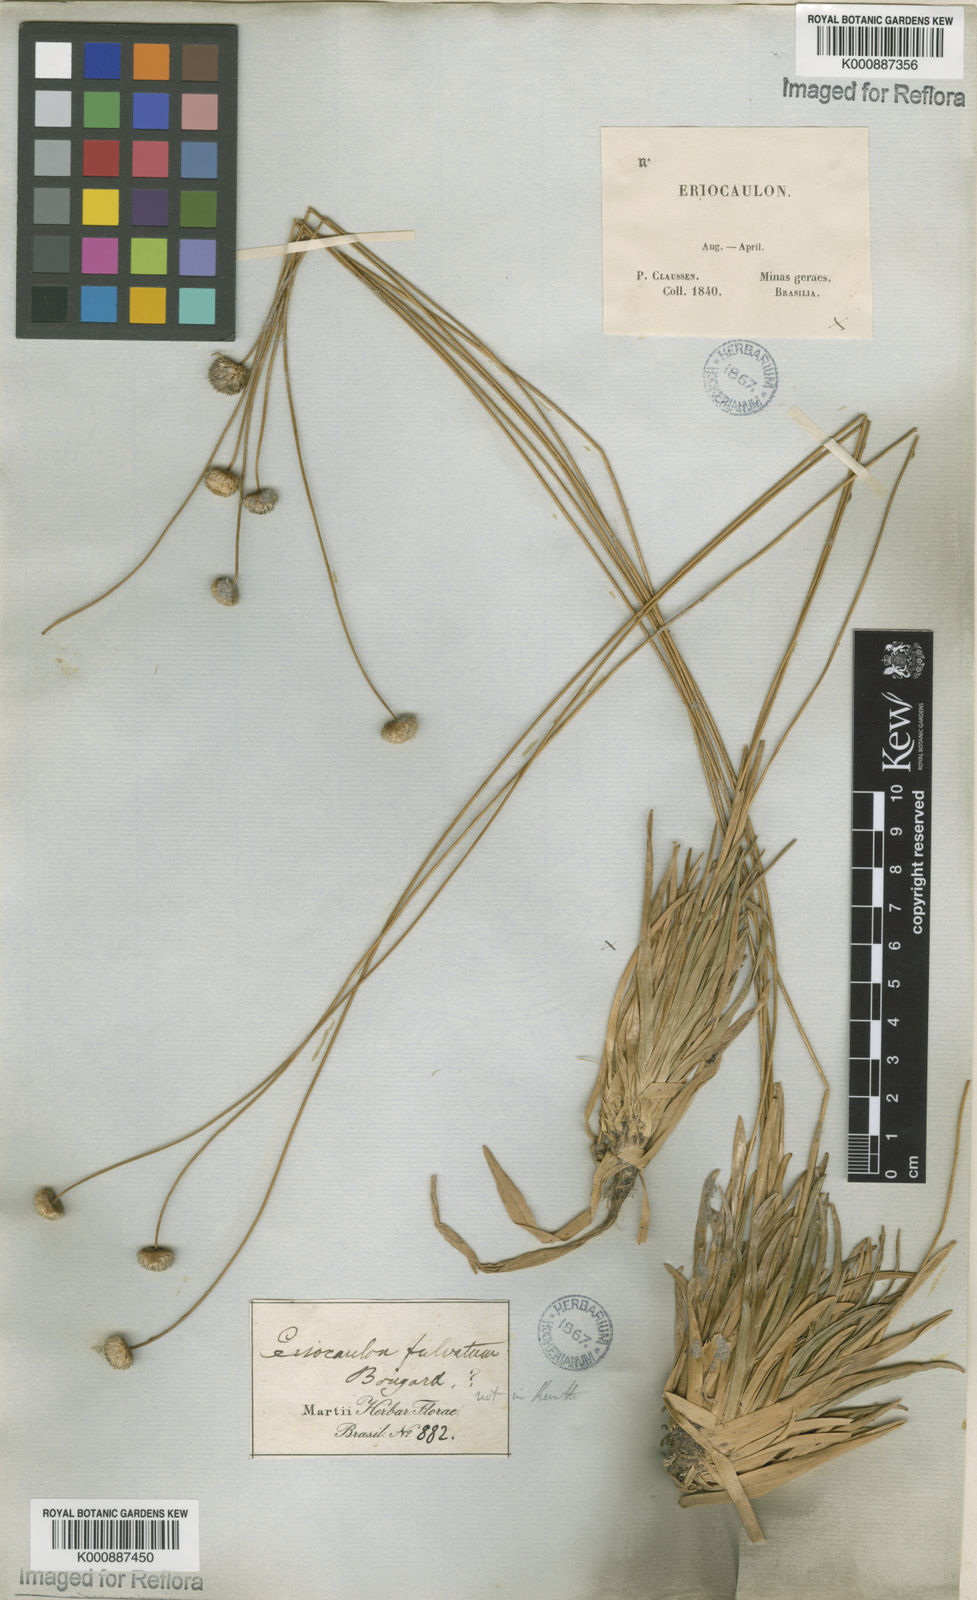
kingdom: Plantae
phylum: Tracheophyta
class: Liliopsida
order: Poales
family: Eriocaulaceae
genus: Leiothrix
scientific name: Leiothrix flavescens
